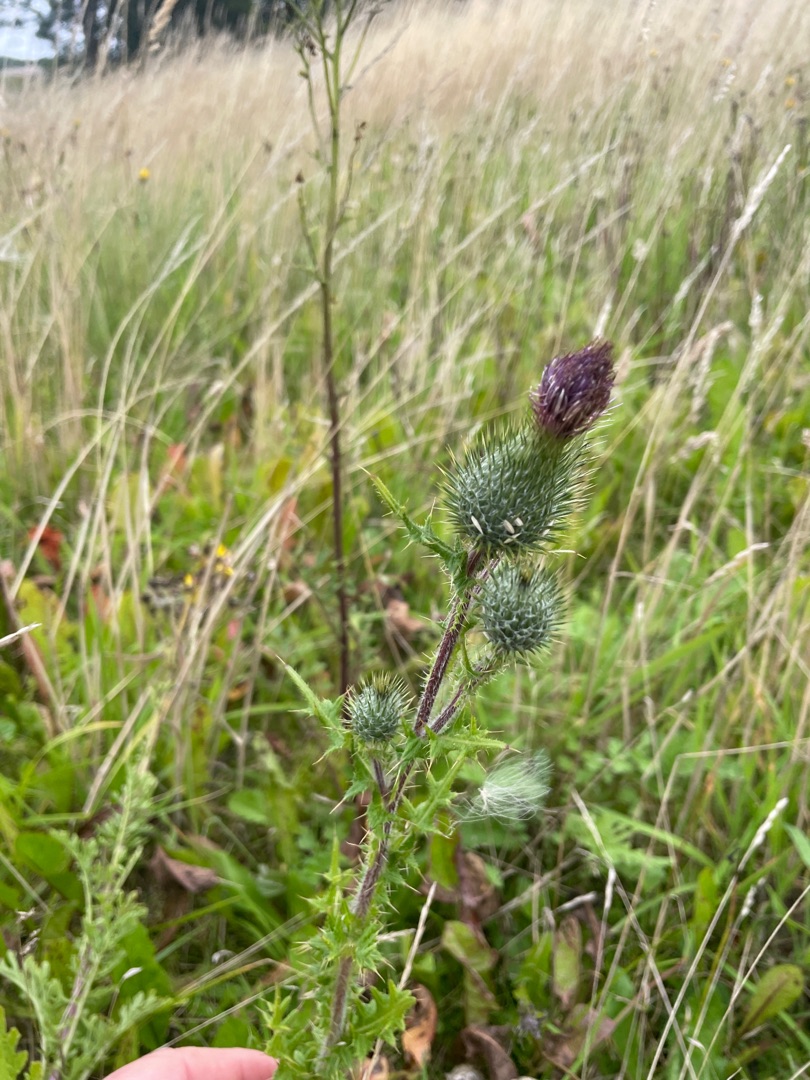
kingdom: Plantae
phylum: Tracheophyta
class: Magnoliopsida
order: Asterales
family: Asteraceae
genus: Cirsium
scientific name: Cirsium vulgare
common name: Horse-tidsel
